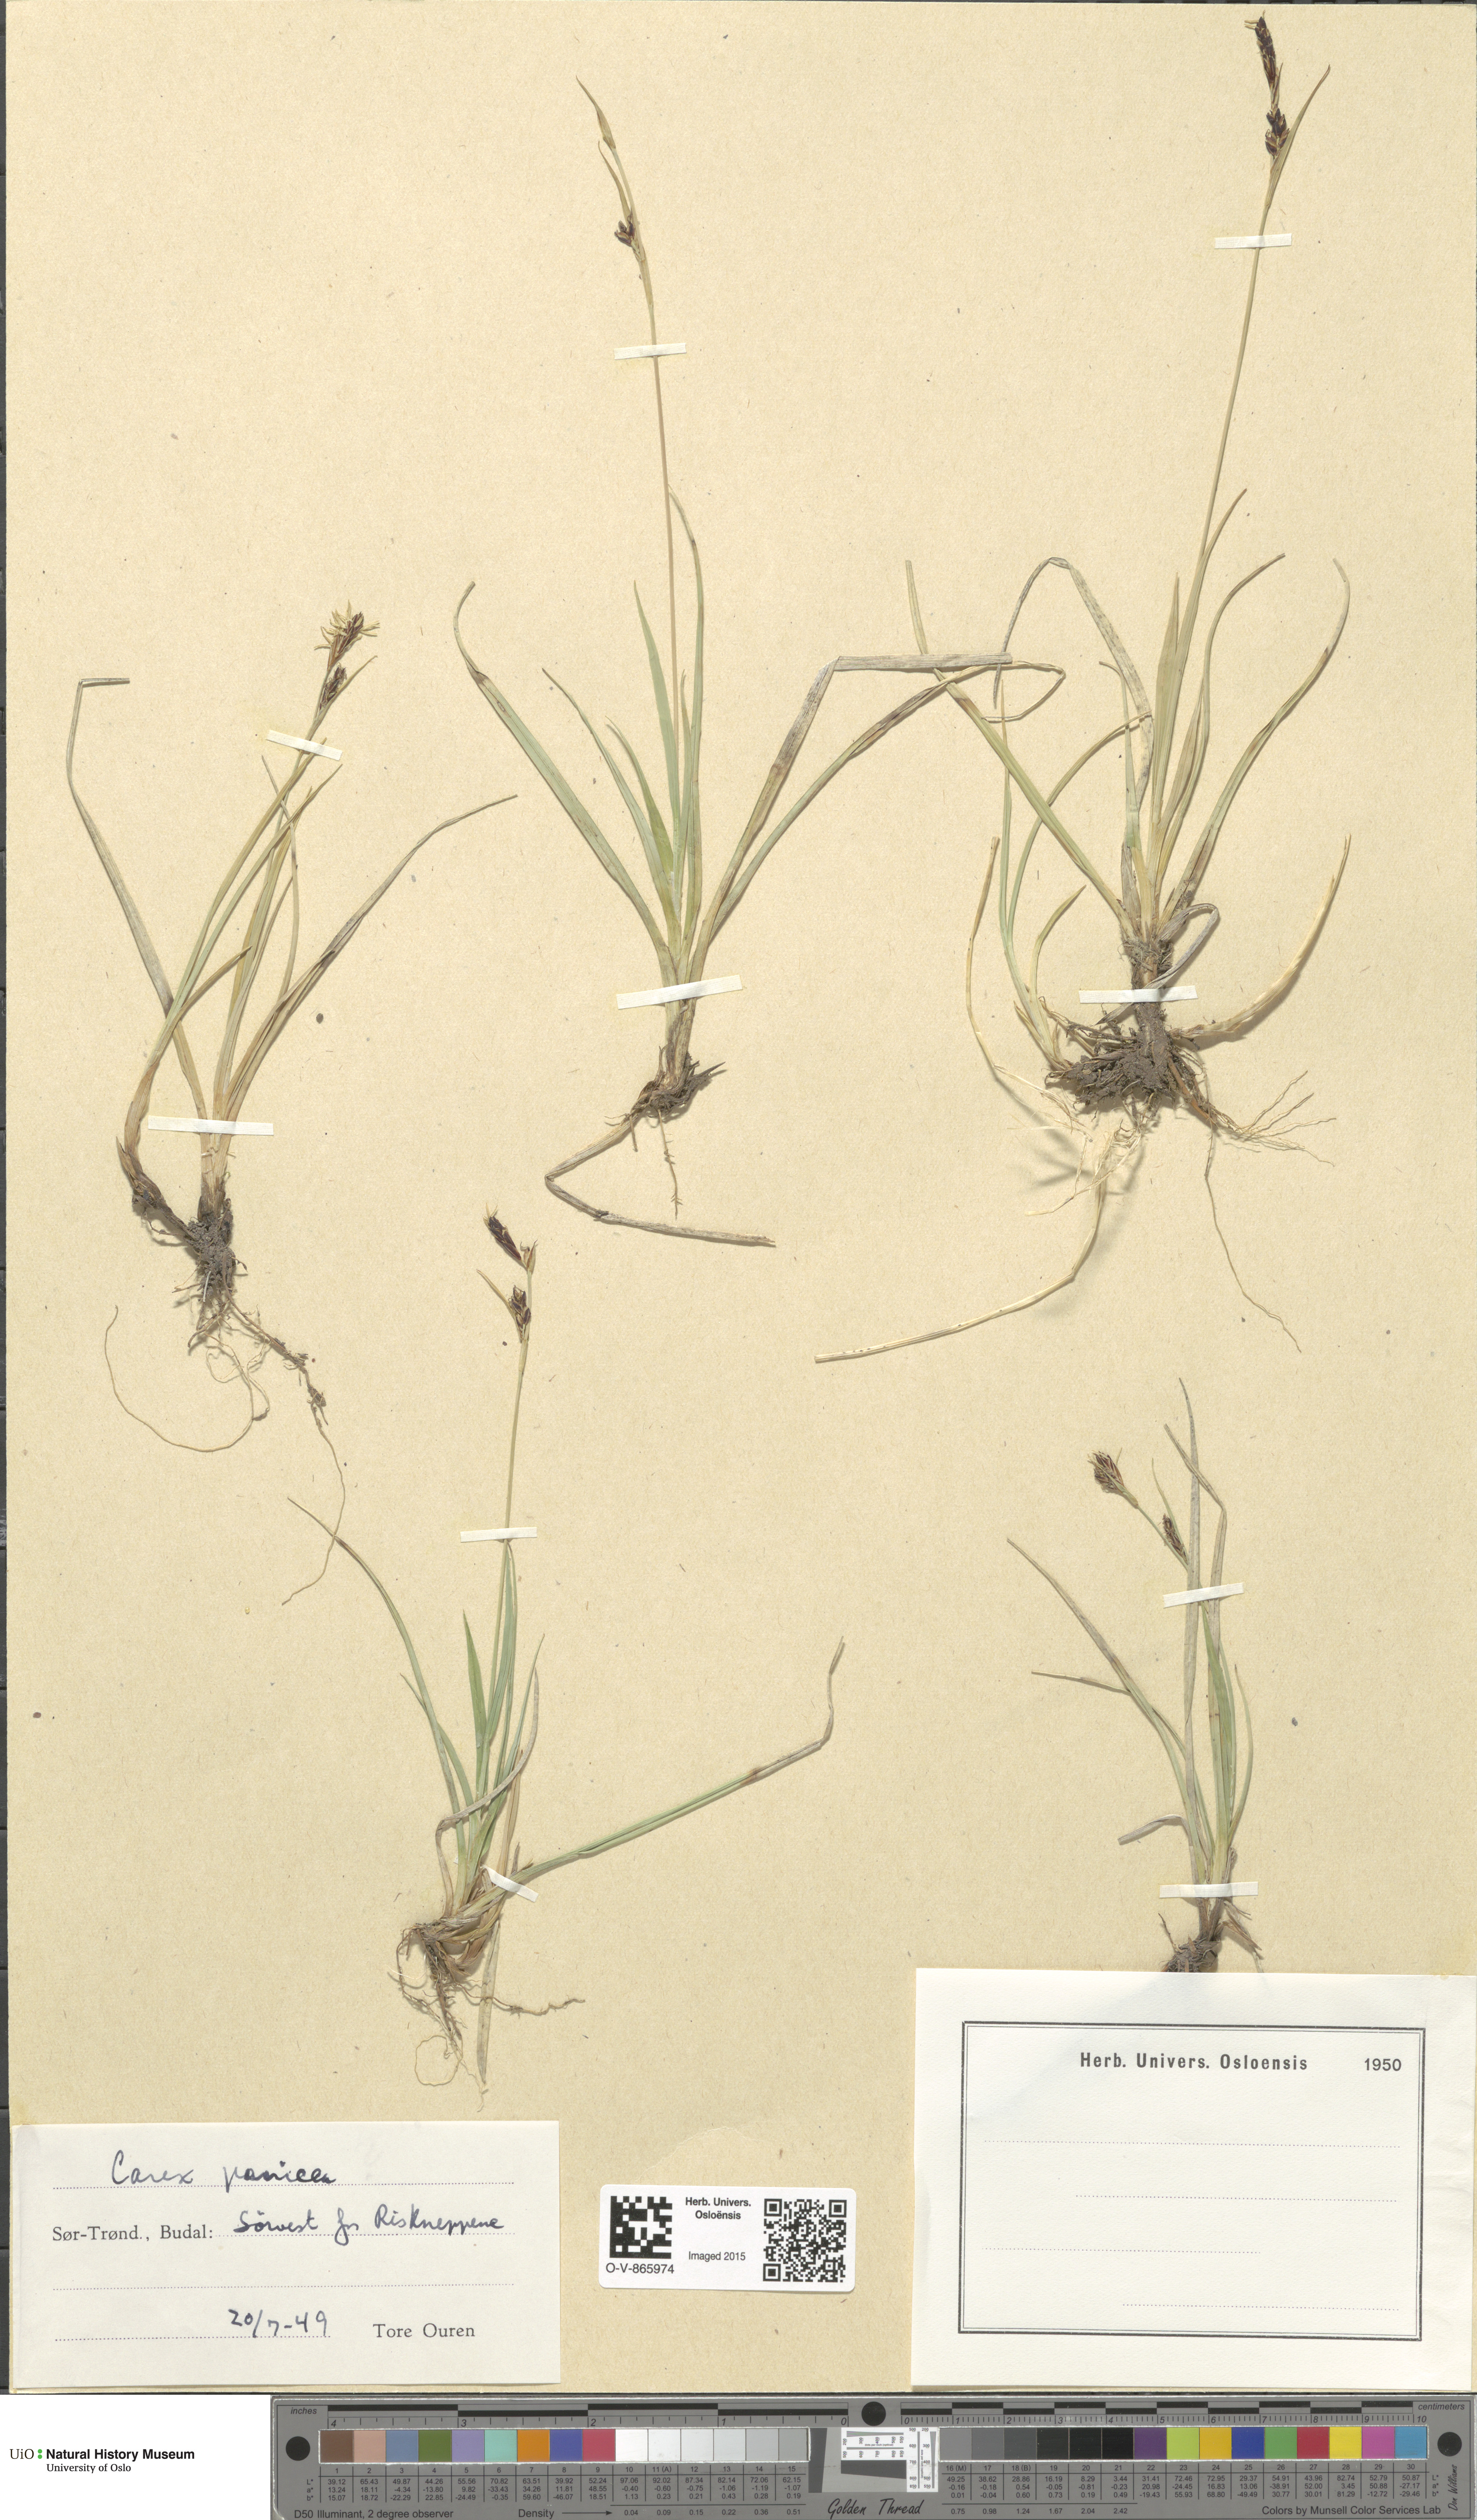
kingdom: Plantae
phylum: Tracheophyta
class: Liliopsida
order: Poales
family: Cyperaceae
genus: Carex
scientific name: Carex panicea
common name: Carnation sedge
